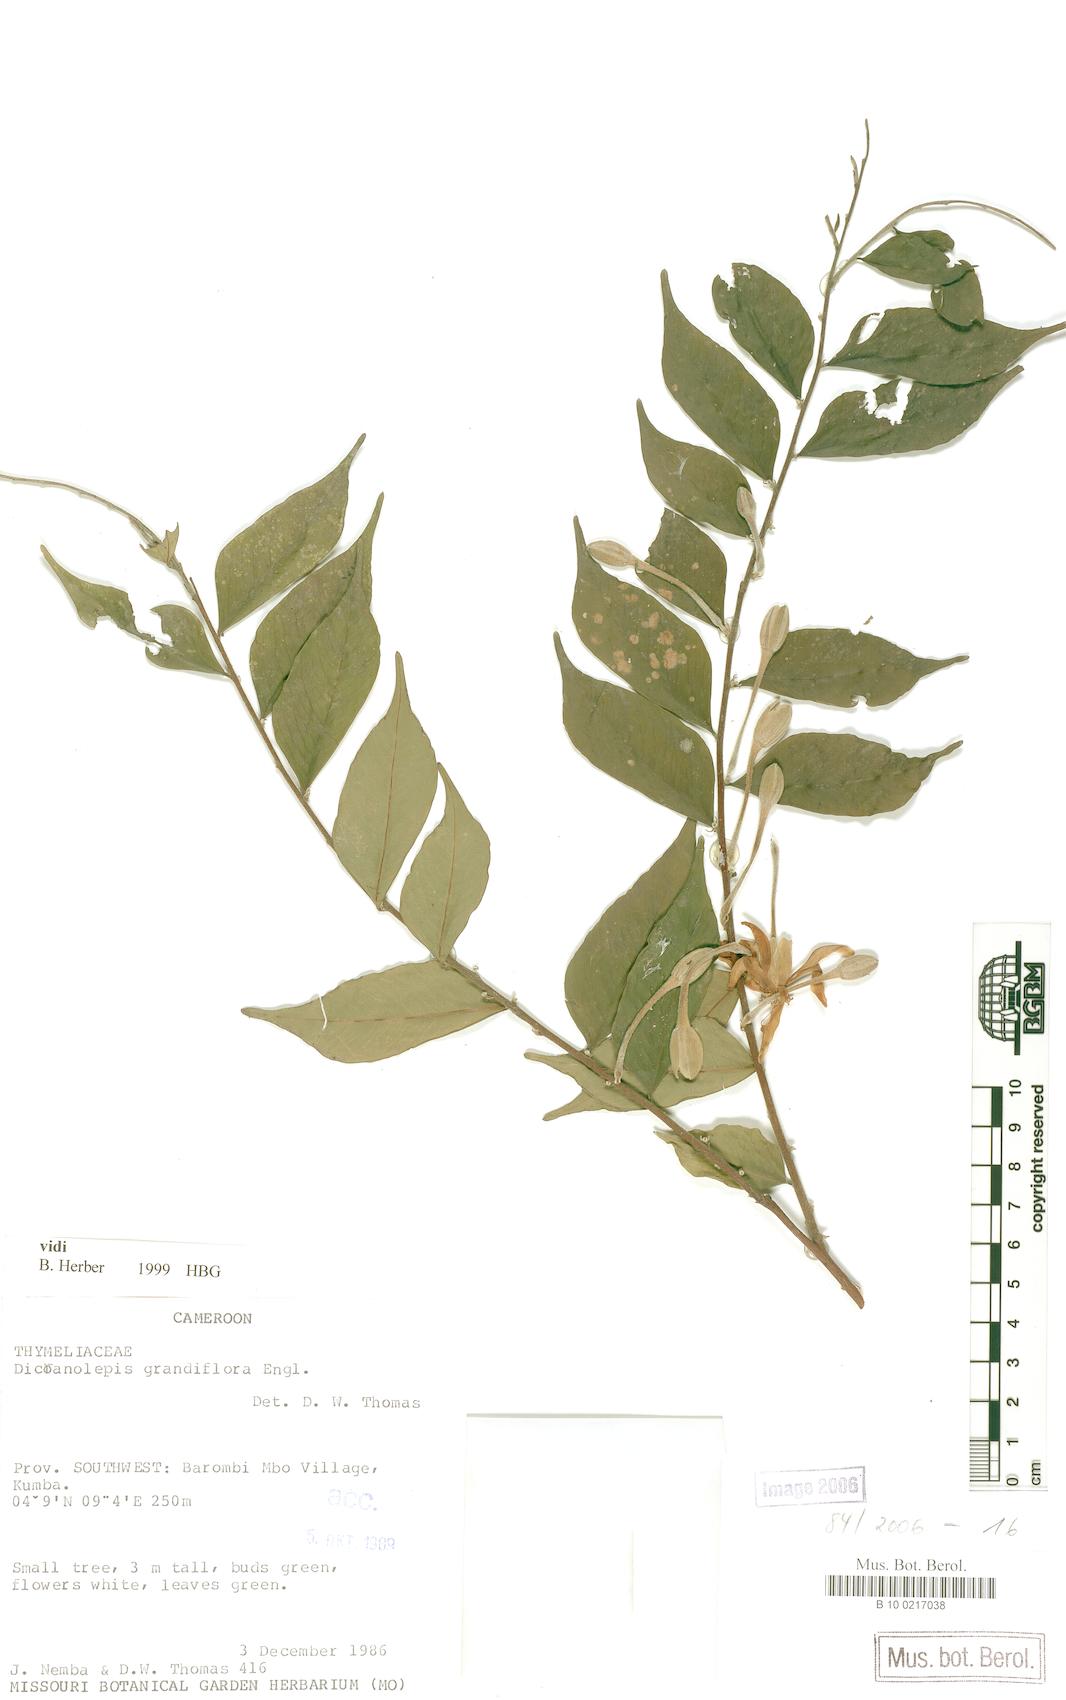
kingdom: Plantae
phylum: Tracheophyta
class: Magnoliopsida
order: Malvales
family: Thymelaeaceae
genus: Dicranolepis
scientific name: Dicranolepis grandiflora
